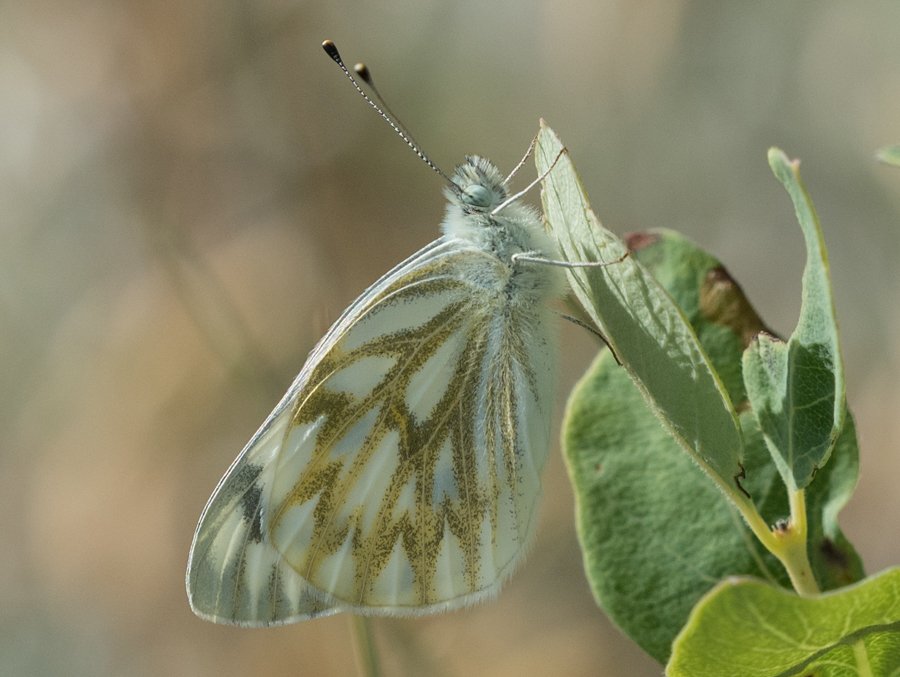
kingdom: Animalia
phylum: Arthropoda
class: Insecta
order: Lepidoptera
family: Pieridae
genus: Pontia
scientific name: Pontia occidentalis
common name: Western White
